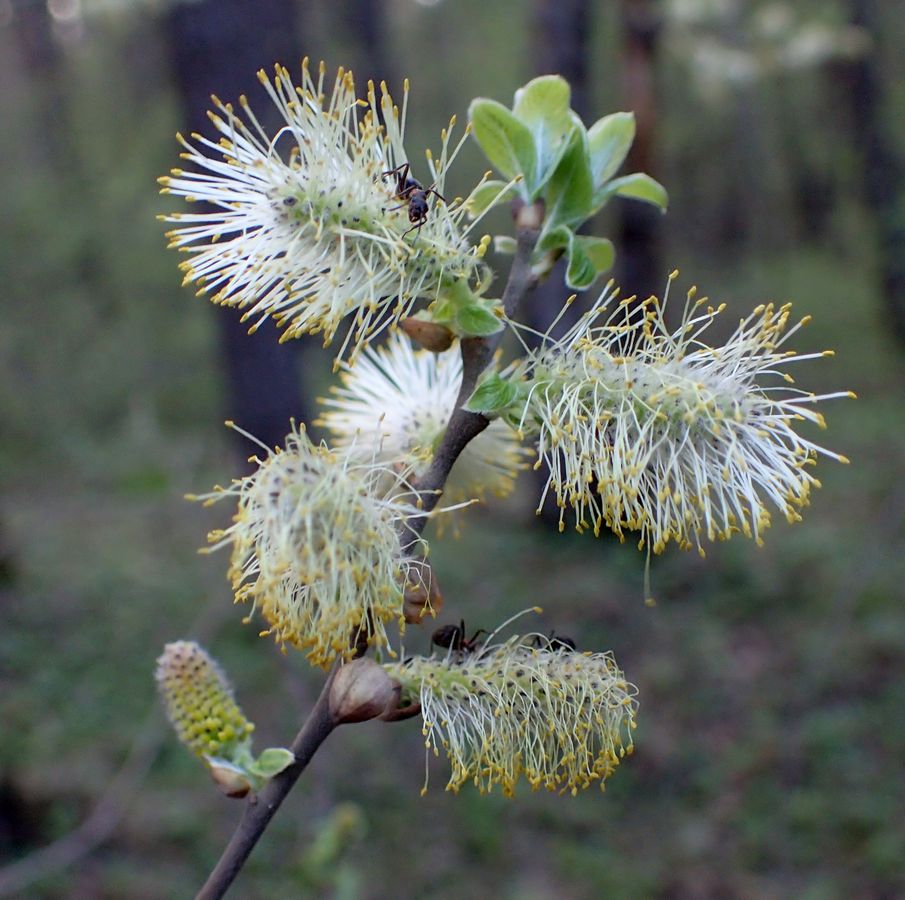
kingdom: Plantae
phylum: Tracheophyta
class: Magnoliopsida
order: Malpighiales
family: Salicaceae
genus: Salix
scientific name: Salix
